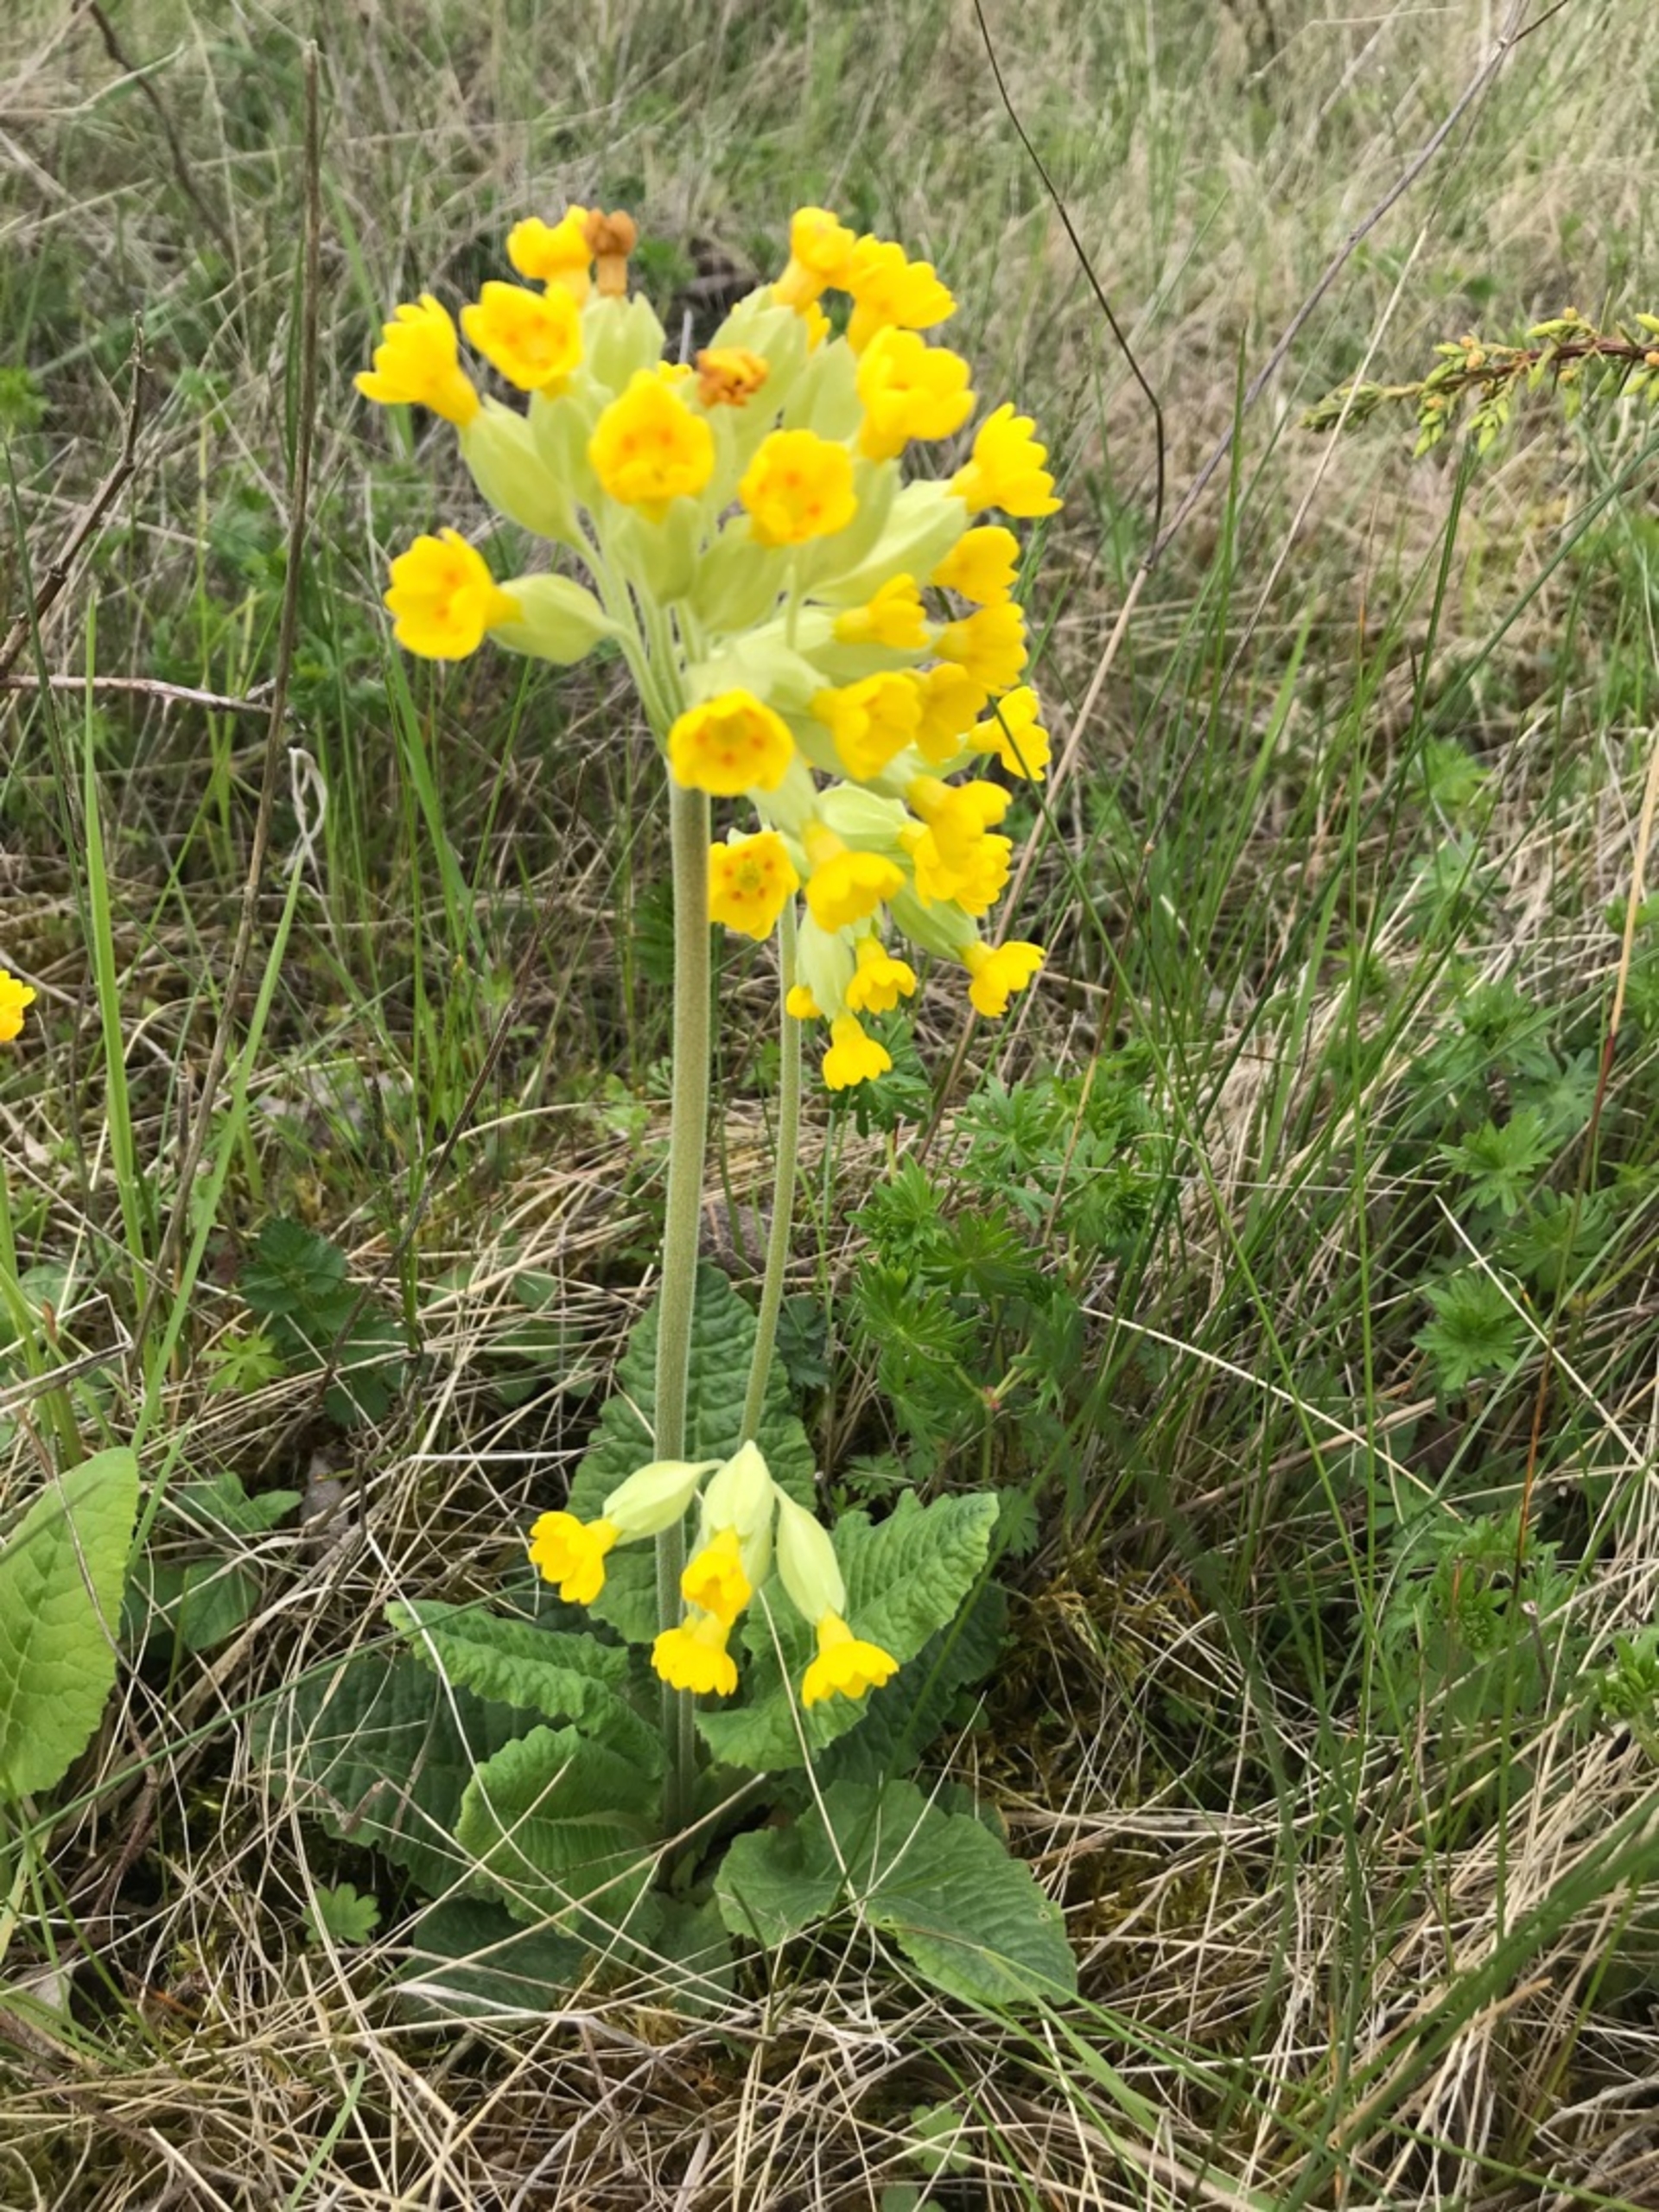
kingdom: Plantae
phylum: Tracheophyta
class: Magnoliopsida
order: Ericales
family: Primulaceae
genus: Primula
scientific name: Primula veris
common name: Hulkravet kodriver
